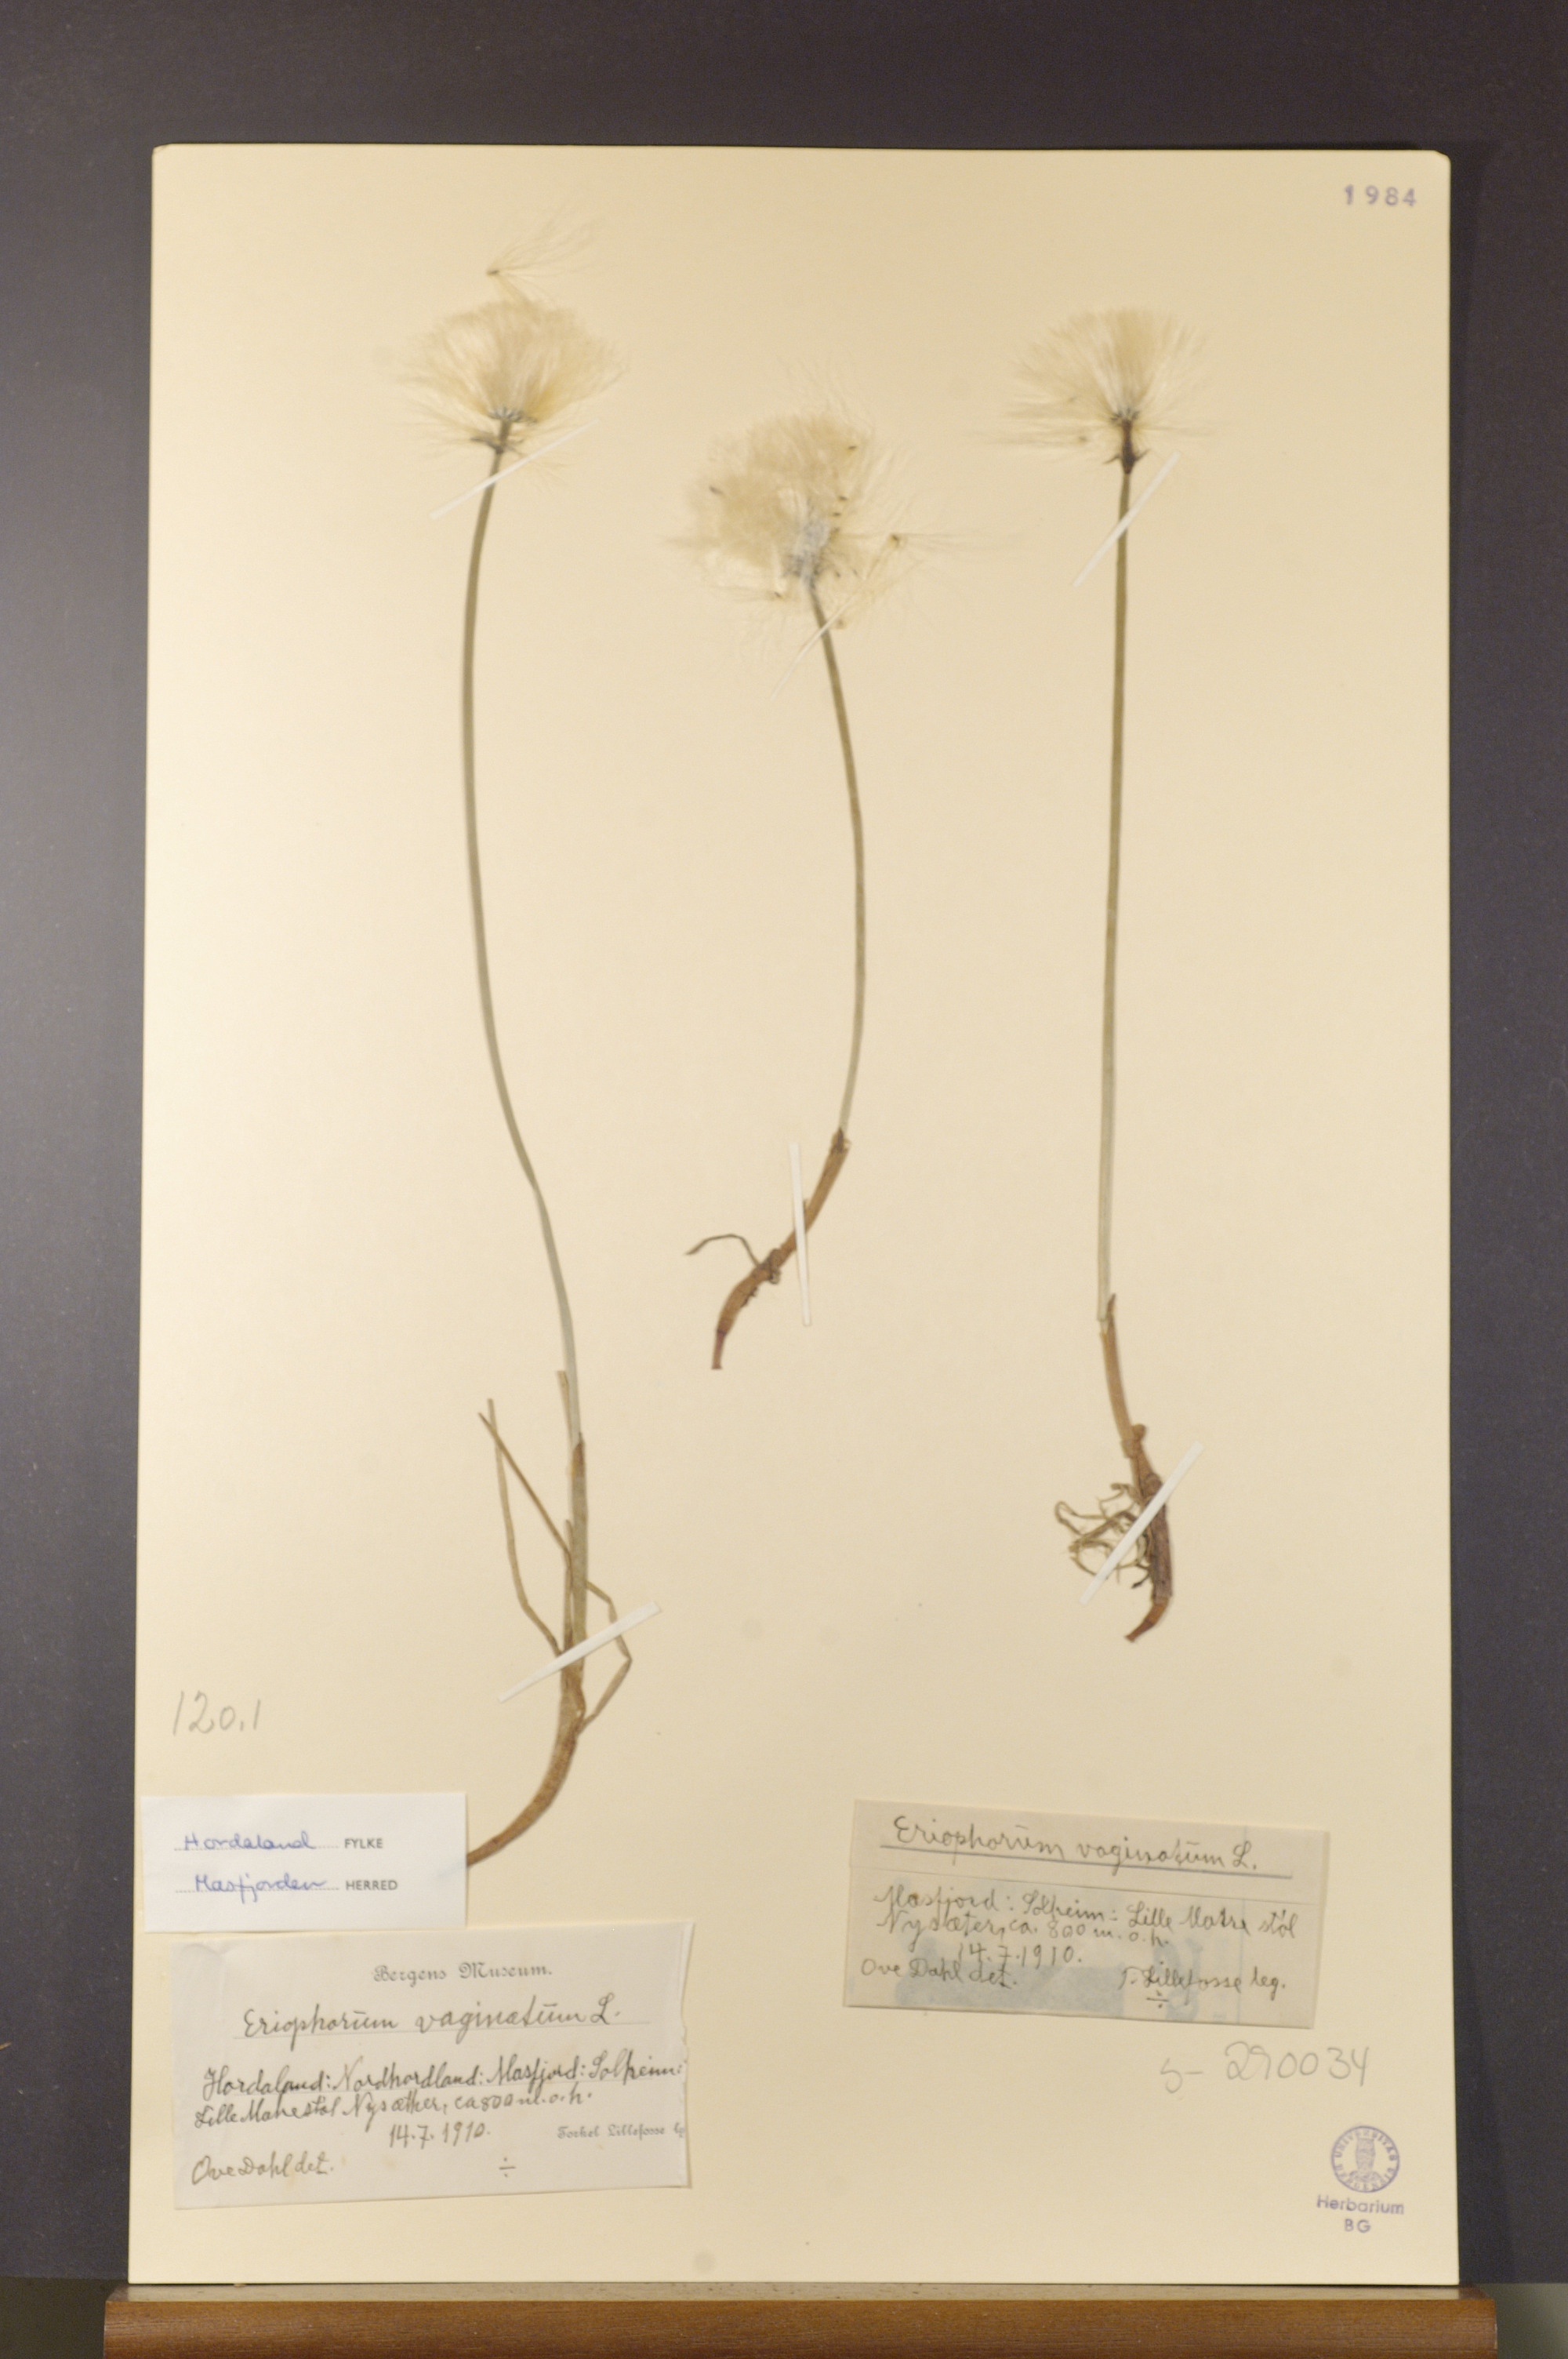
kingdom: Plantae
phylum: Tracheophyta
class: Liliopsida
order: Poales
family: Cyperaceae
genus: Eriophorum
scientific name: Eriophorum vaginatum
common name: Hare's-tail cottongrass
